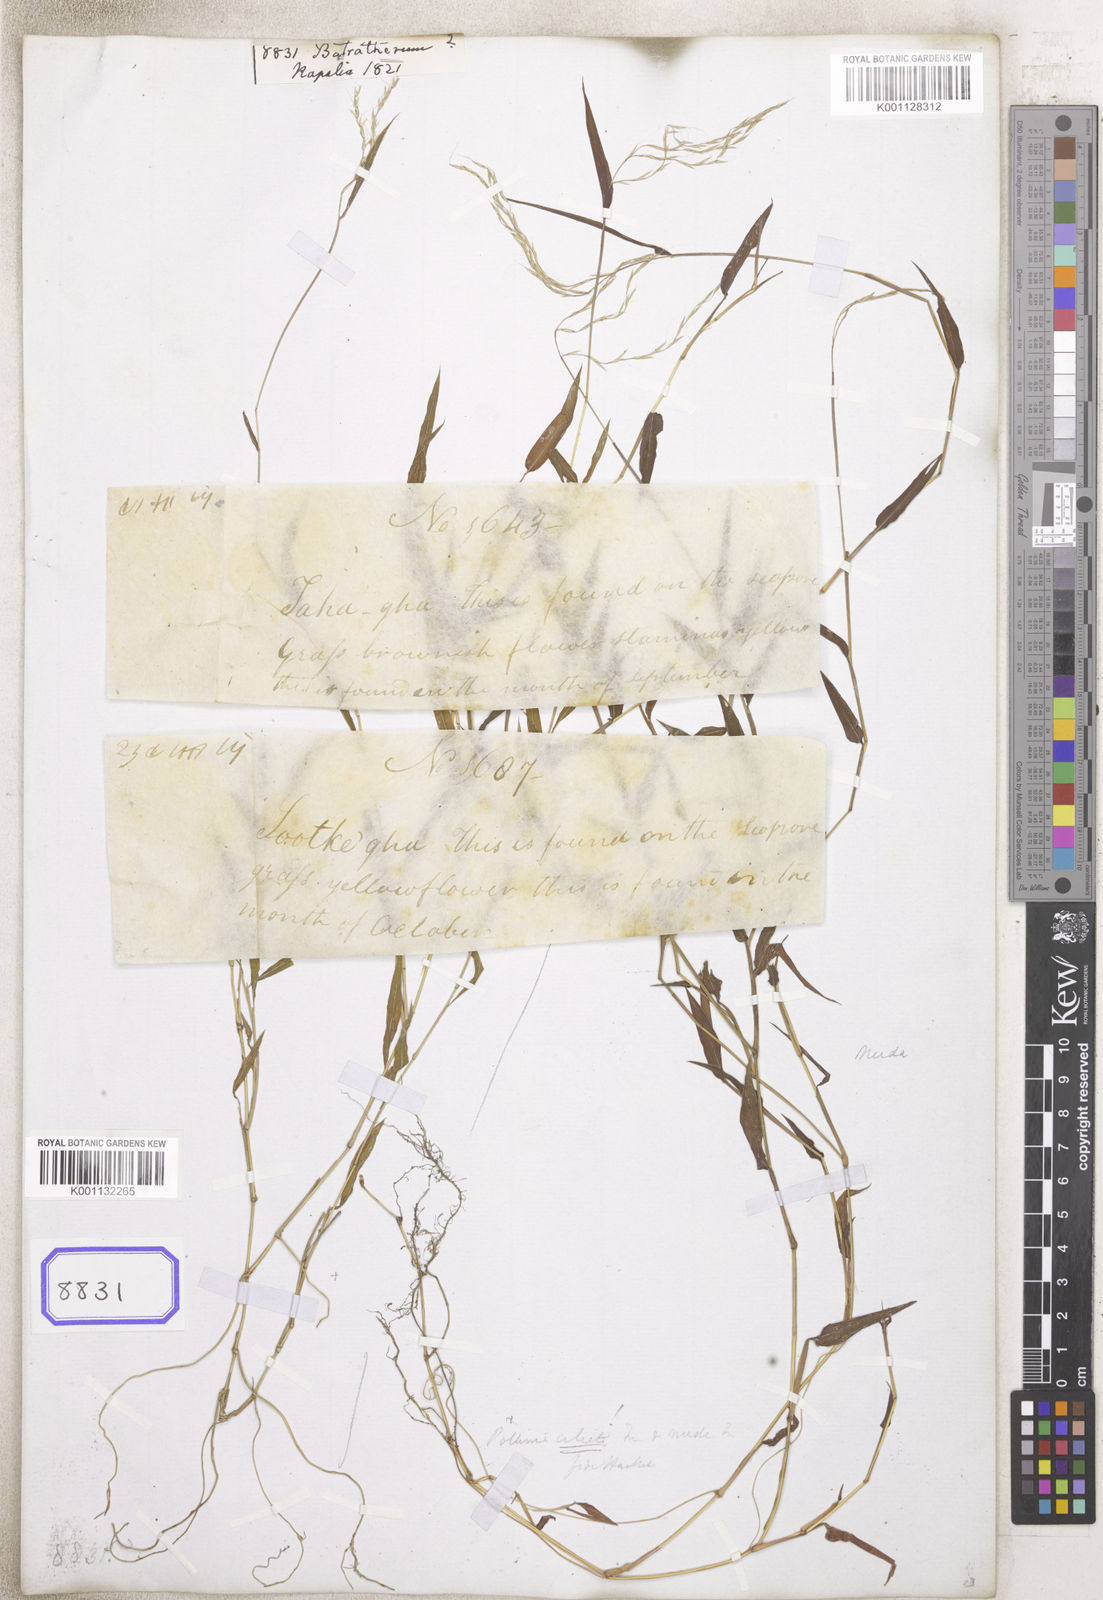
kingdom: Plantae
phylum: Tracheophyta
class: Liliopsida
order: Poales
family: Poaceae
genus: Arthraxon
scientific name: Arthraxon
